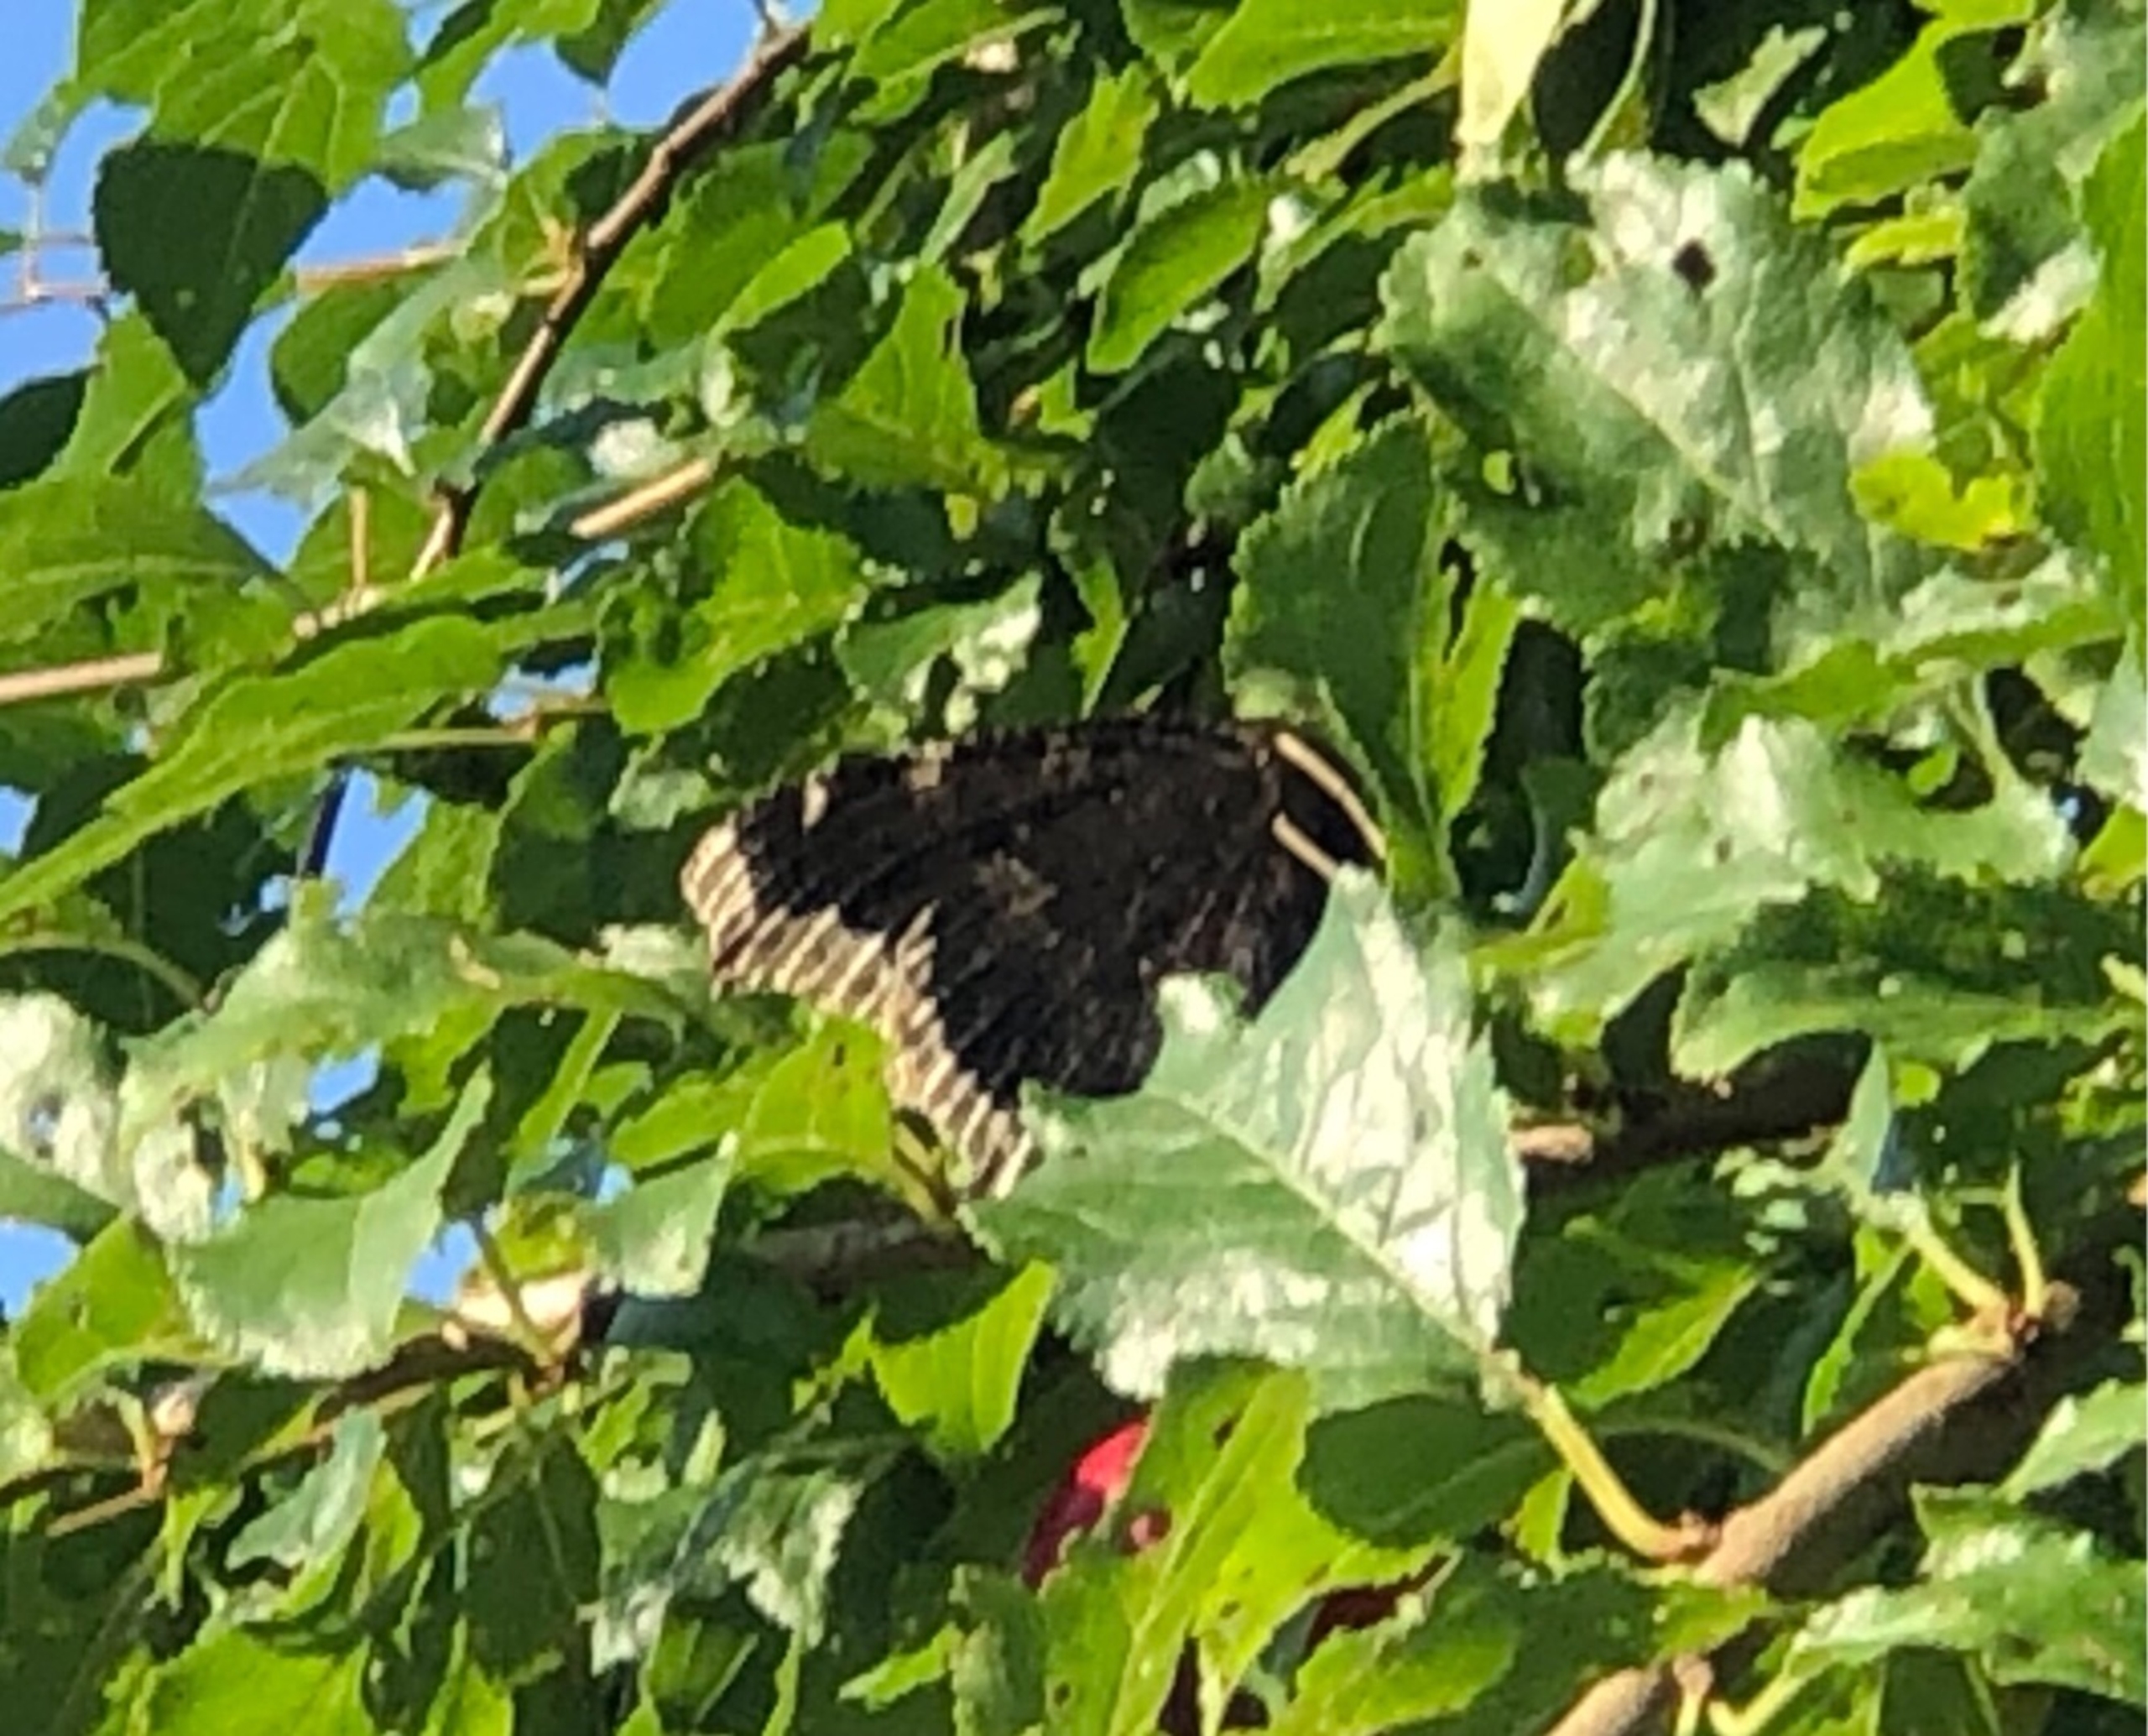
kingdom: Animalia
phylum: Arthropoda
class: Insecta
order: Lepidoptera
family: Nymphalidae
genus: Nymphalis
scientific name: Nymphalis antiopa
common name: Sørgekåbe
